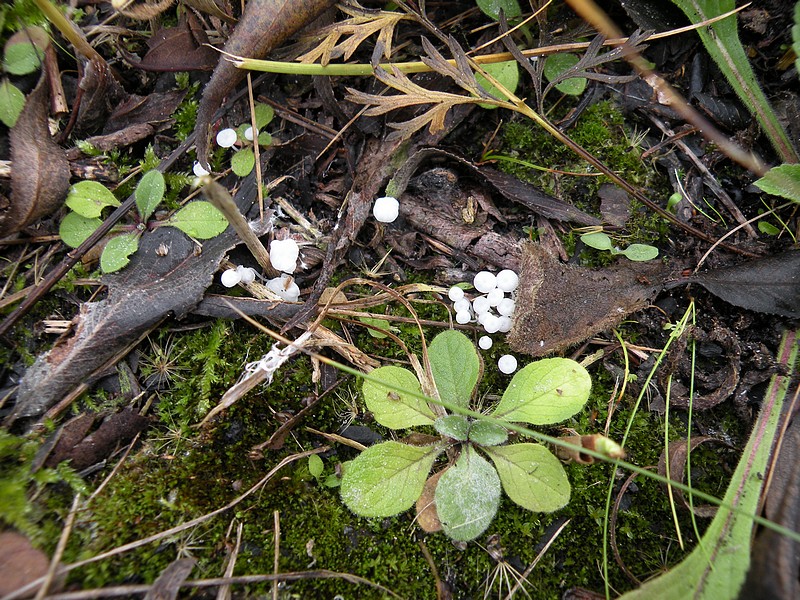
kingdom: Fungi
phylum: Basidiomycota
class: Agaricomycetes
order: Agaricales
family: Mycenaceae
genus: Hemimycena
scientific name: Hemimycena gracilis
